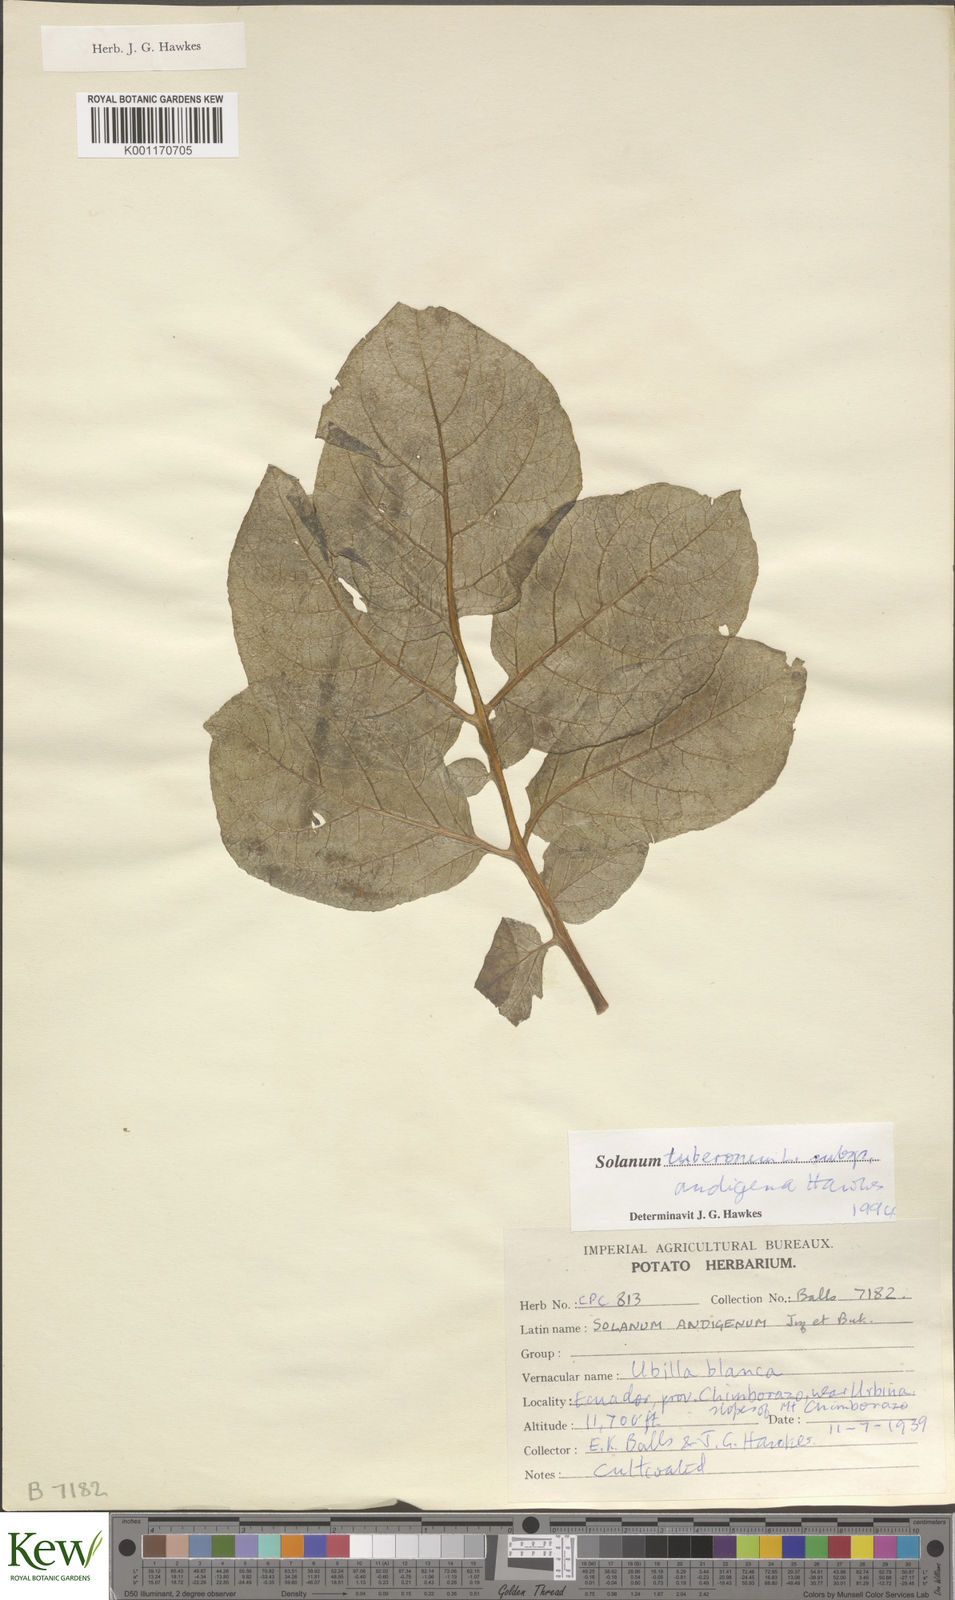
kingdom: Plantae
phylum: Tracheophyta
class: Magnoliopsida
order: Solanales
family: Solanaceae
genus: Solanum
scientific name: Solanum tuberosum
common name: Potato
